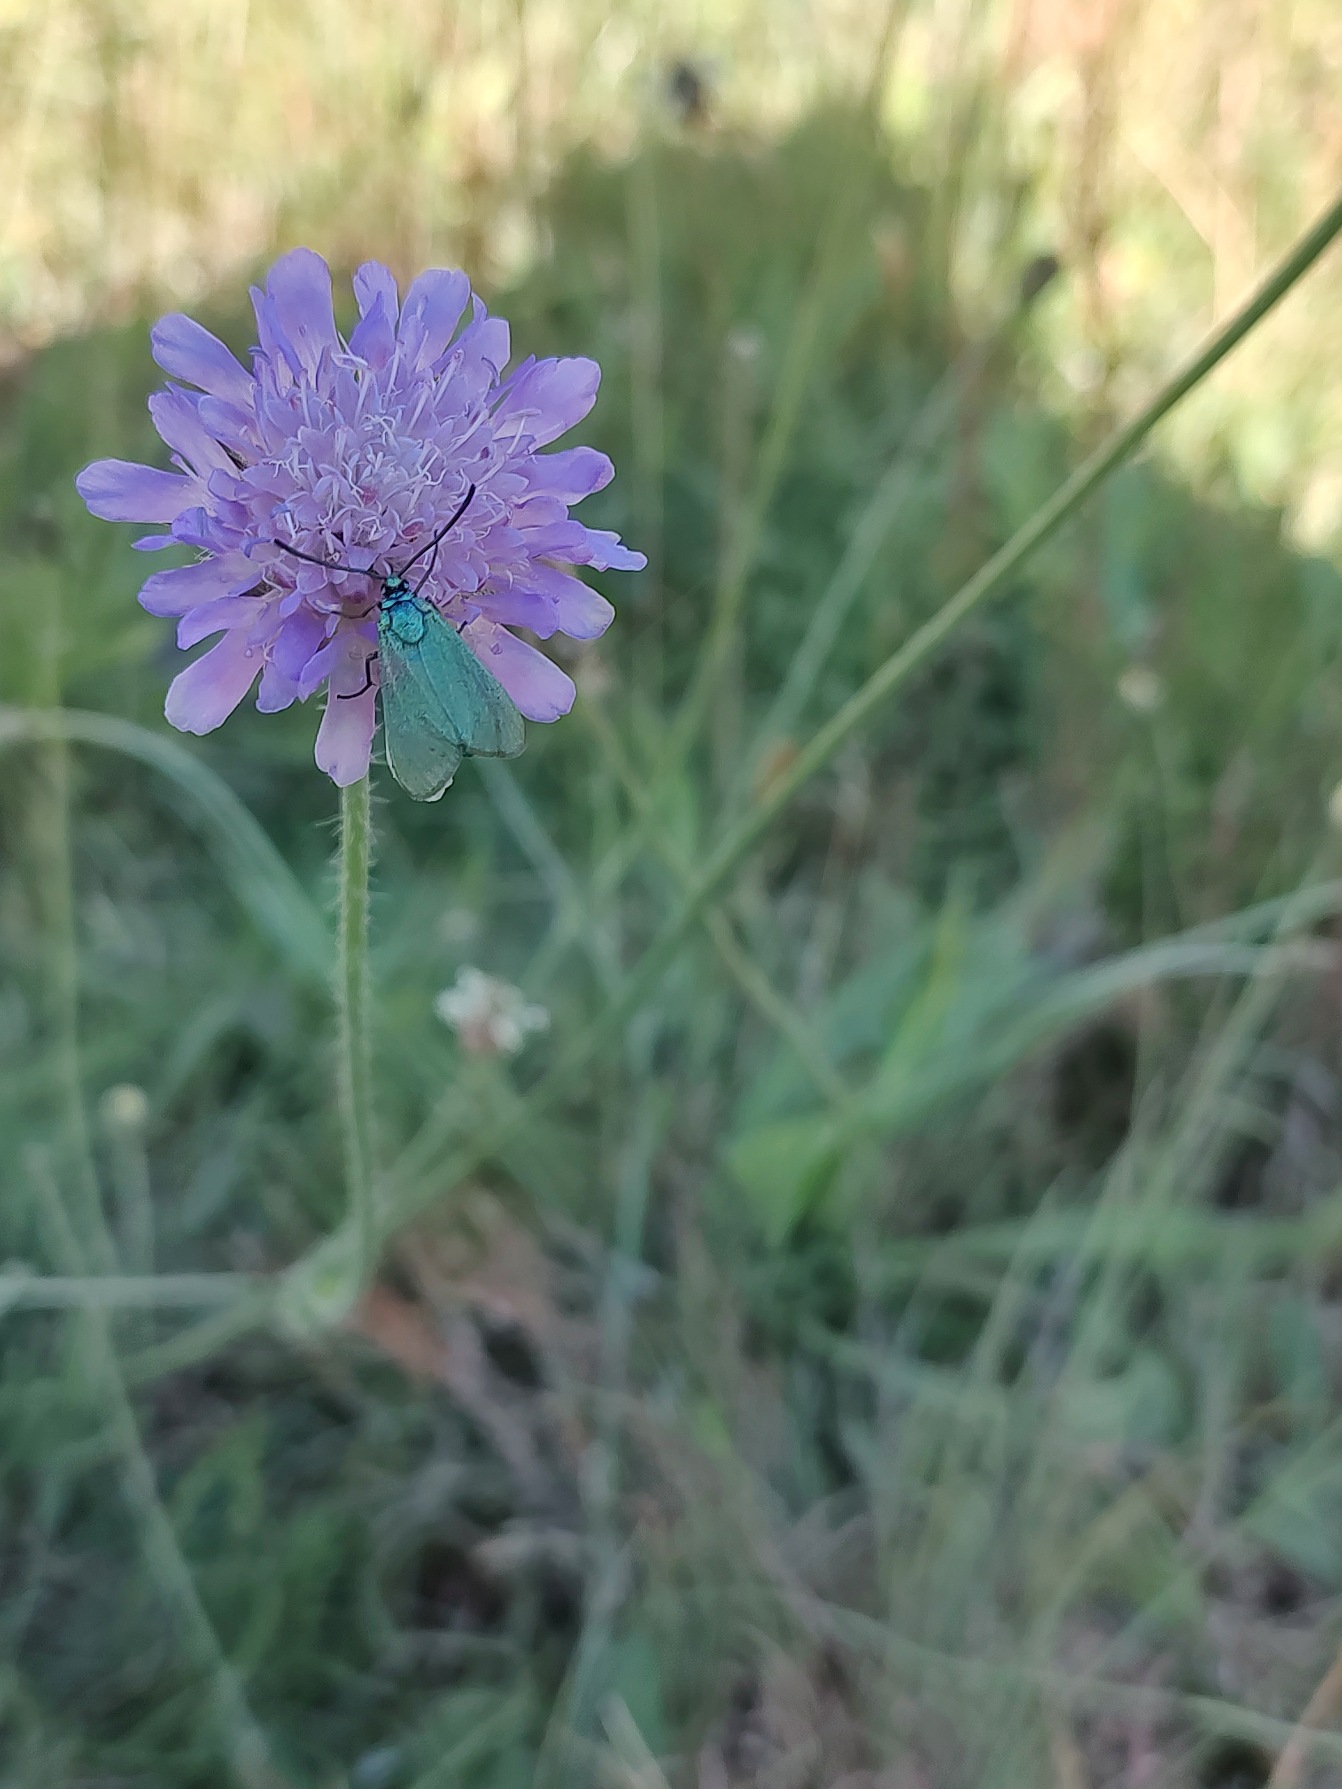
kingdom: Animalia
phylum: Arthropoda
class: Insecta
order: Lepidoptera
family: Zygaenidae
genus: Adscita
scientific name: Adscita statices
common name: Metalvinge
